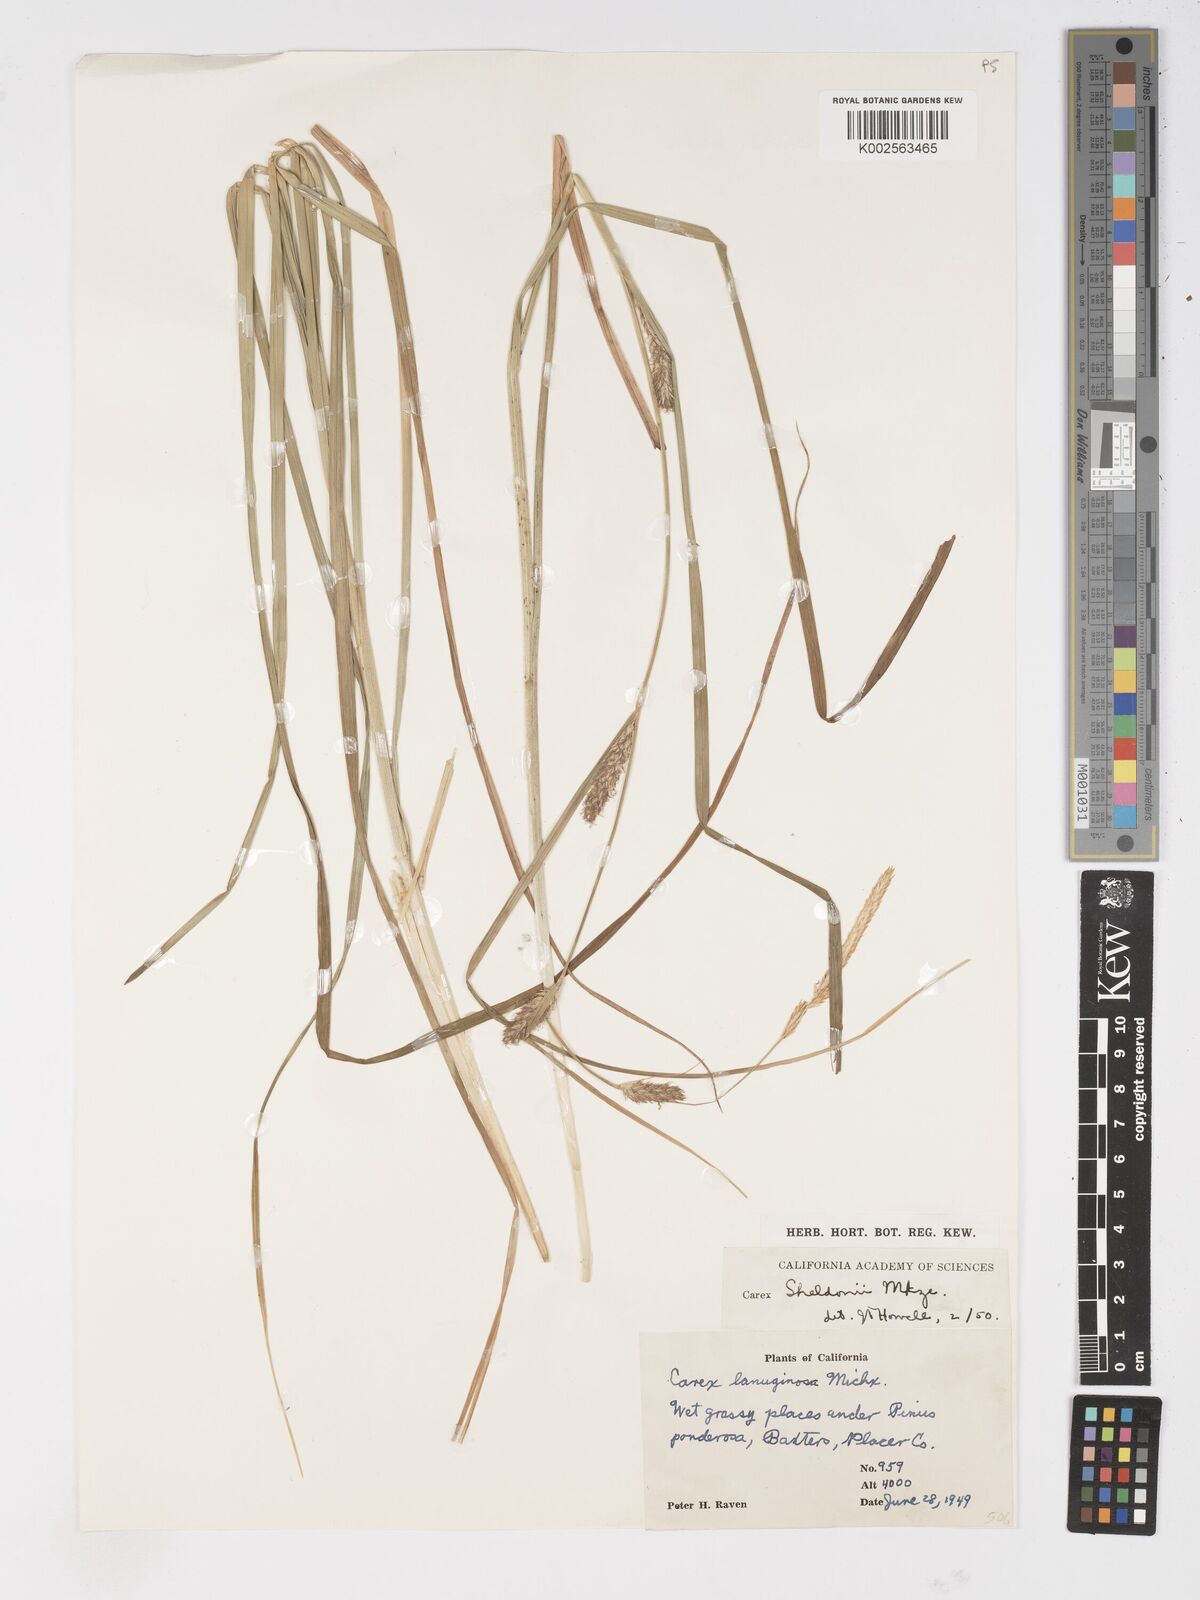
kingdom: Plantae
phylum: Tracheophyta
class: Liliopsida
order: Poales
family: Cyperaceae
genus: Carex
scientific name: Carex sheldonii
